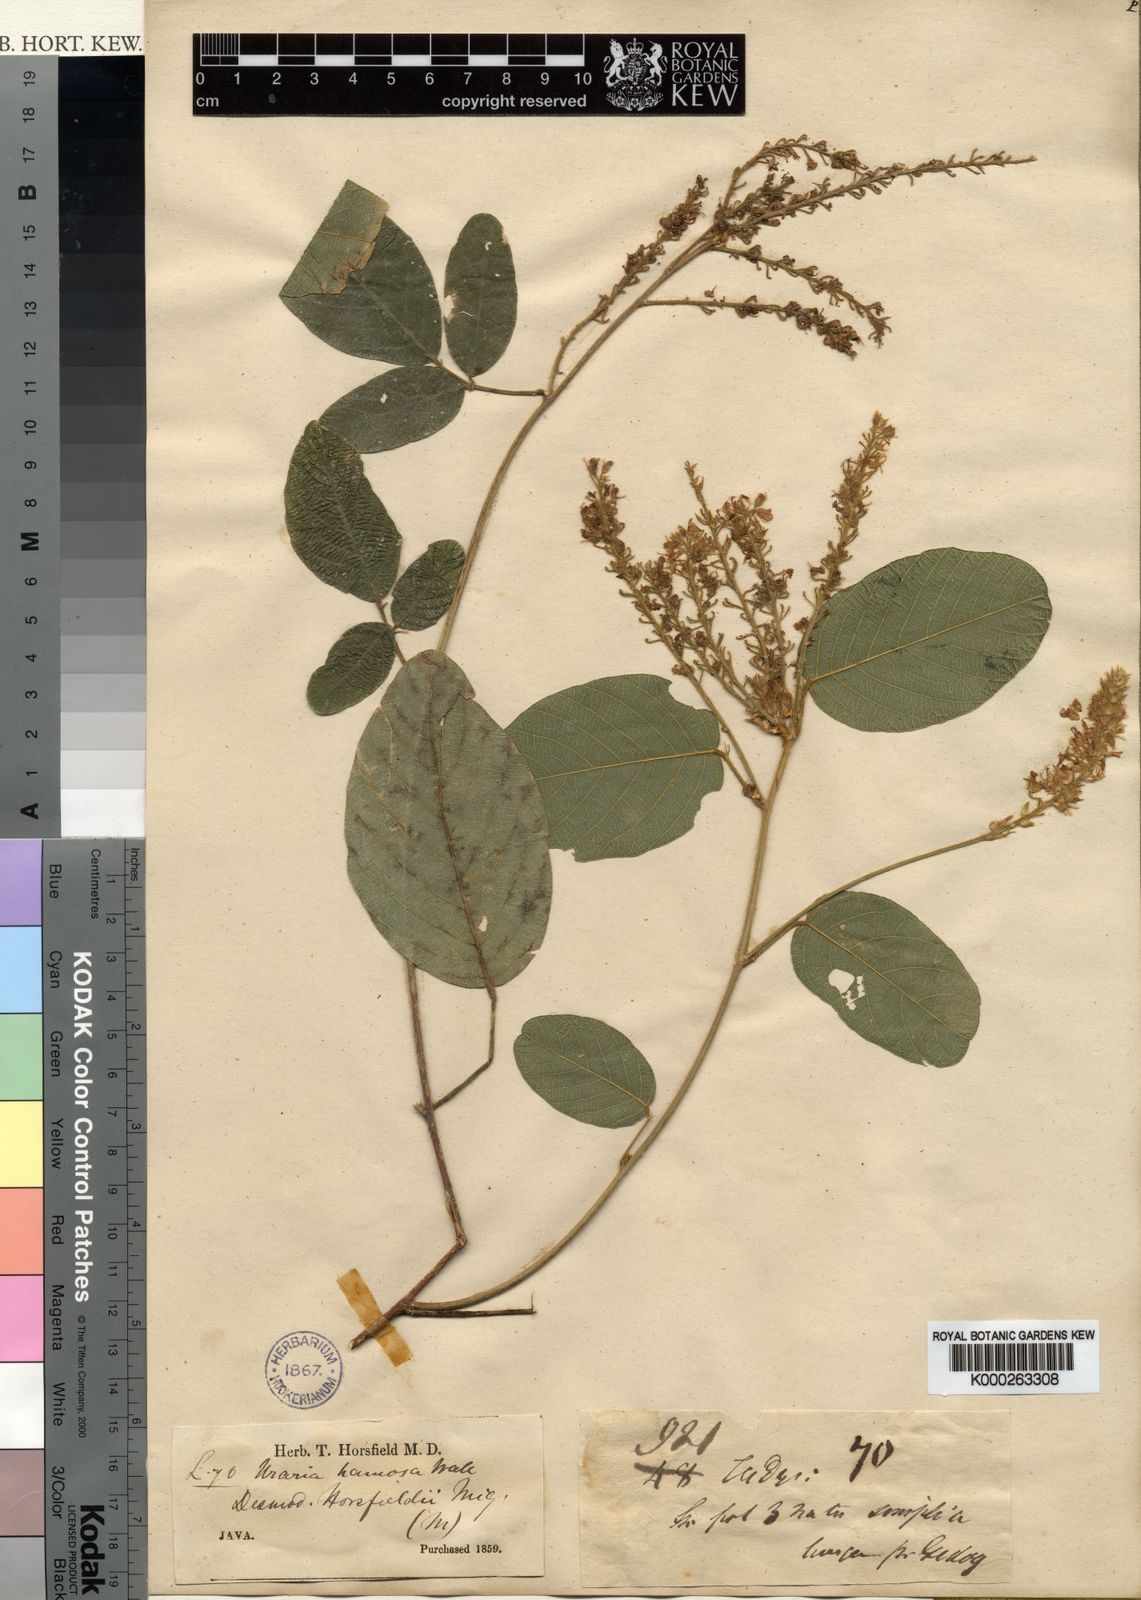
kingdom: Plantae
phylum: Tracheophyta
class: Magnoliopsida
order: Fabales
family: Fabaceae
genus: Uraria
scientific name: Uraria rufescens
